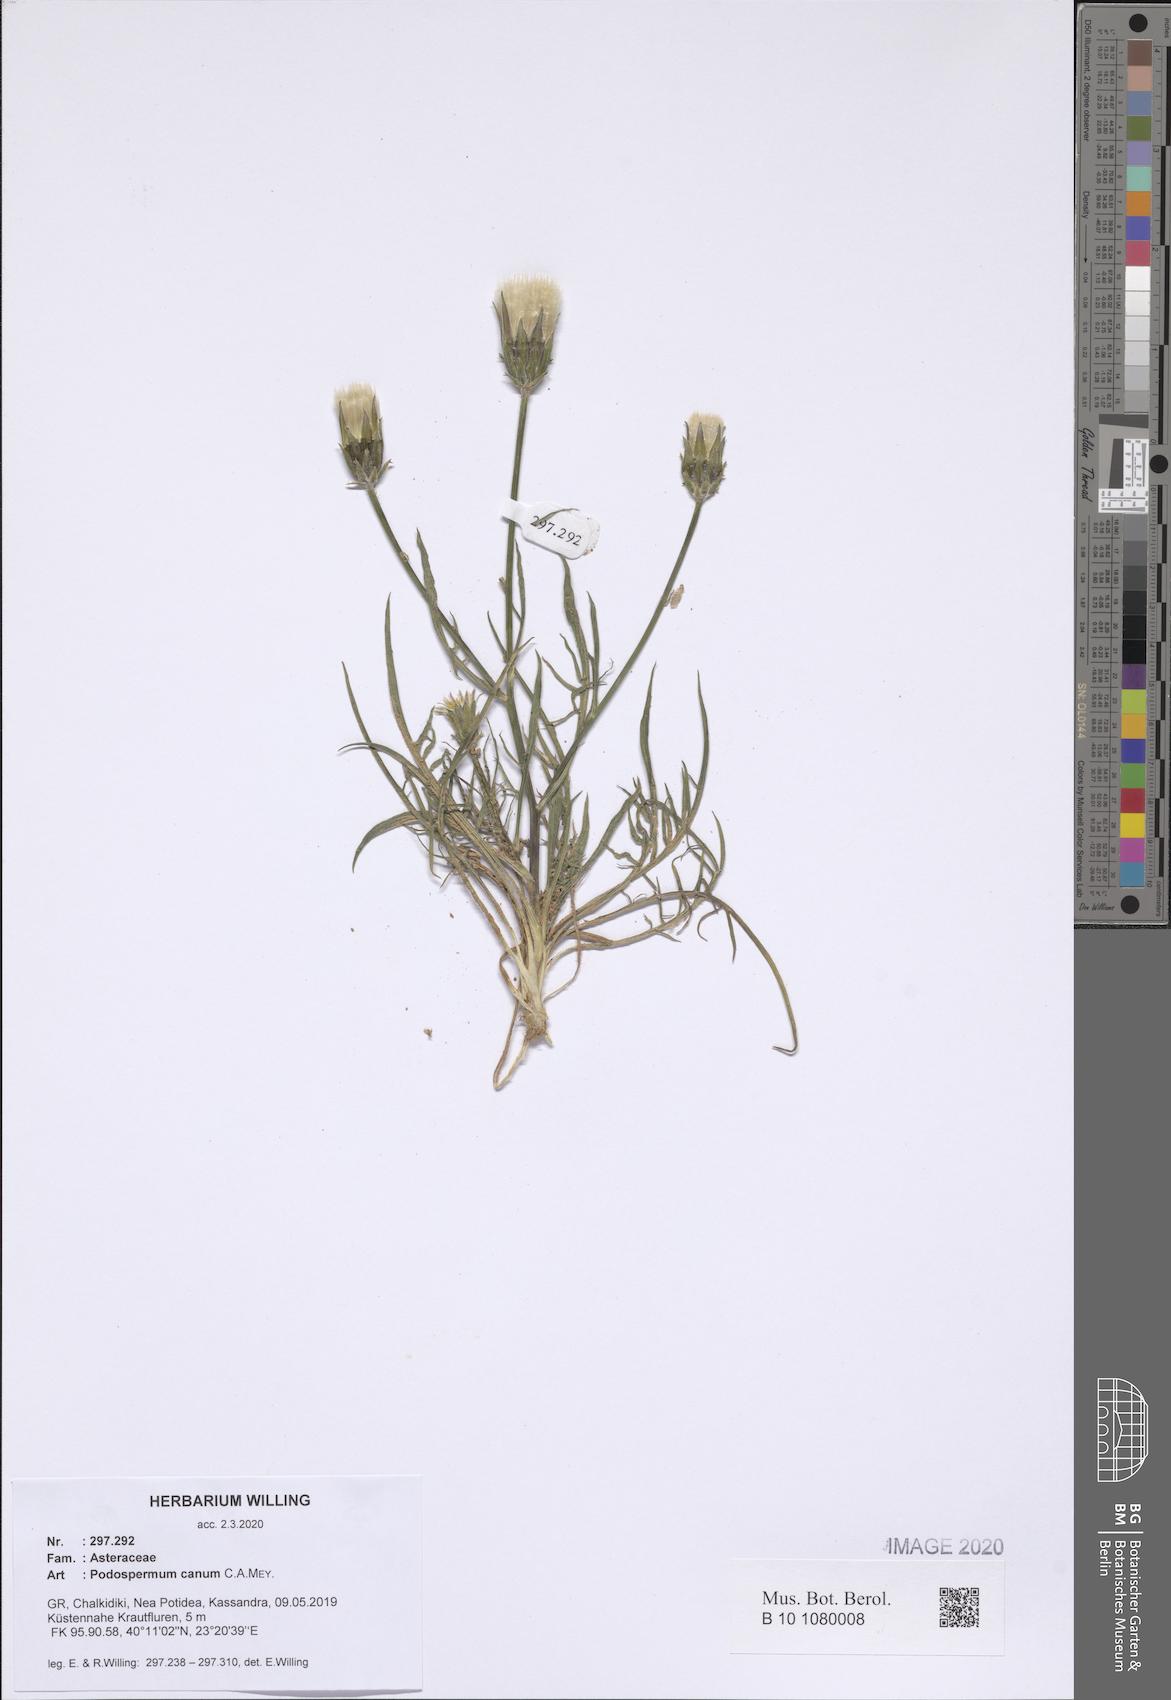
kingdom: Plantae
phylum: Tracheophyta
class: Magnoliopsida
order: Asterales
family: Asteraceae
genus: Scorzonera
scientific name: Scorzonera cana
